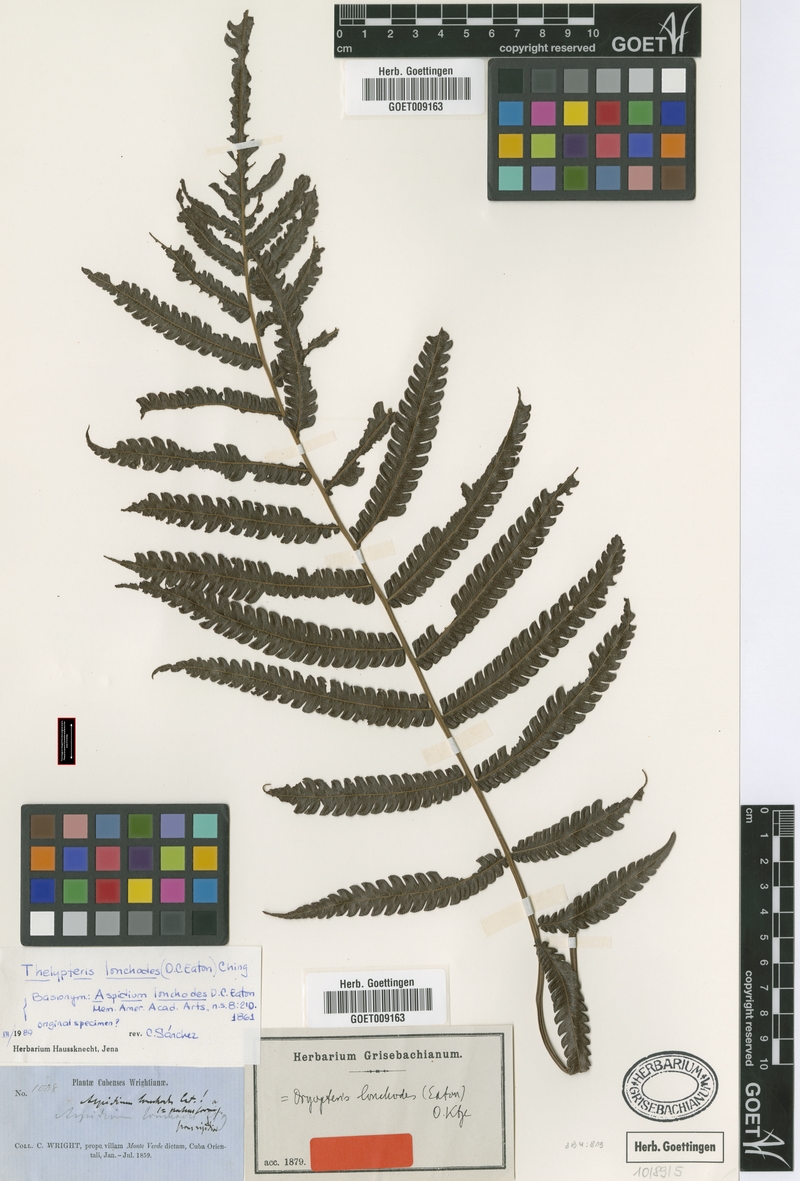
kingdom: Plantae
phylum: Tracheophyta
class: Polypodiopsida
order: Polypodiales
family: Thelypteridaceae
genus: Steiropteris
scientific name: Steiropteris lonchodes
